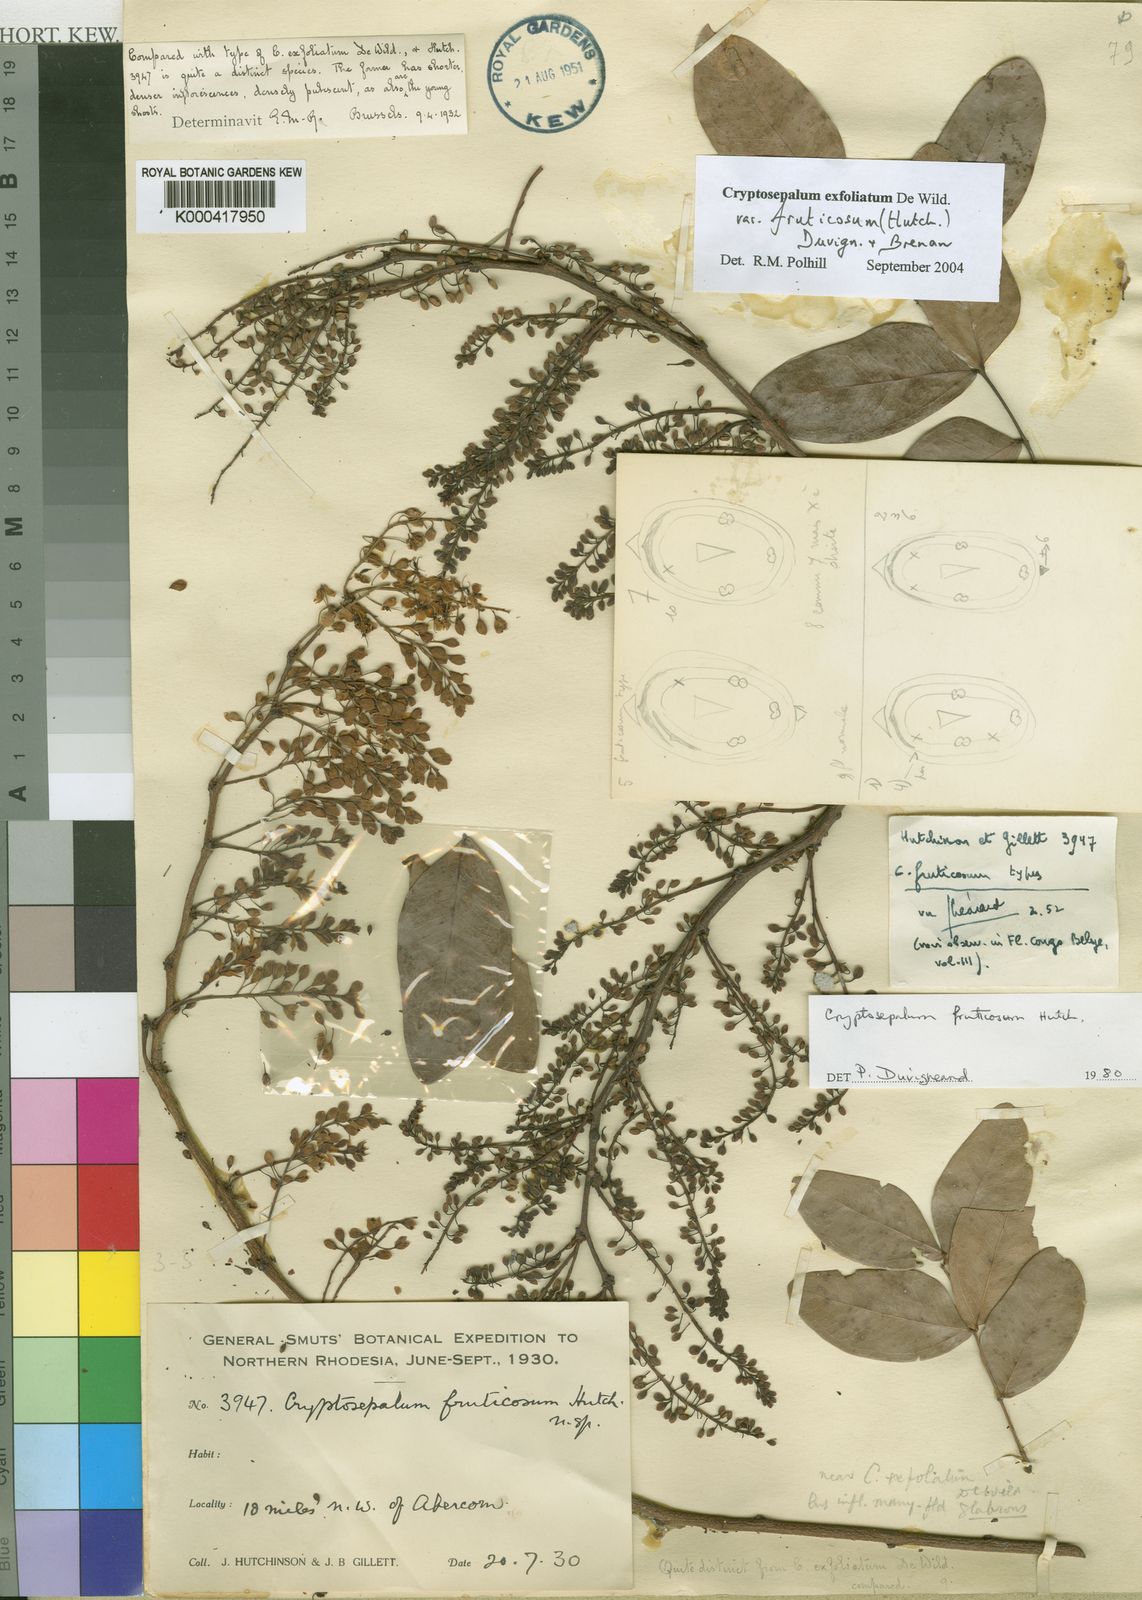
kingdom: Plantae
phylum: Tracheophyta
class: Magnoliopsida
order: Fabales
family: Fabaceae
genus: Cryptosepalum
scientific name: Cryptosepalum exfoliatum
